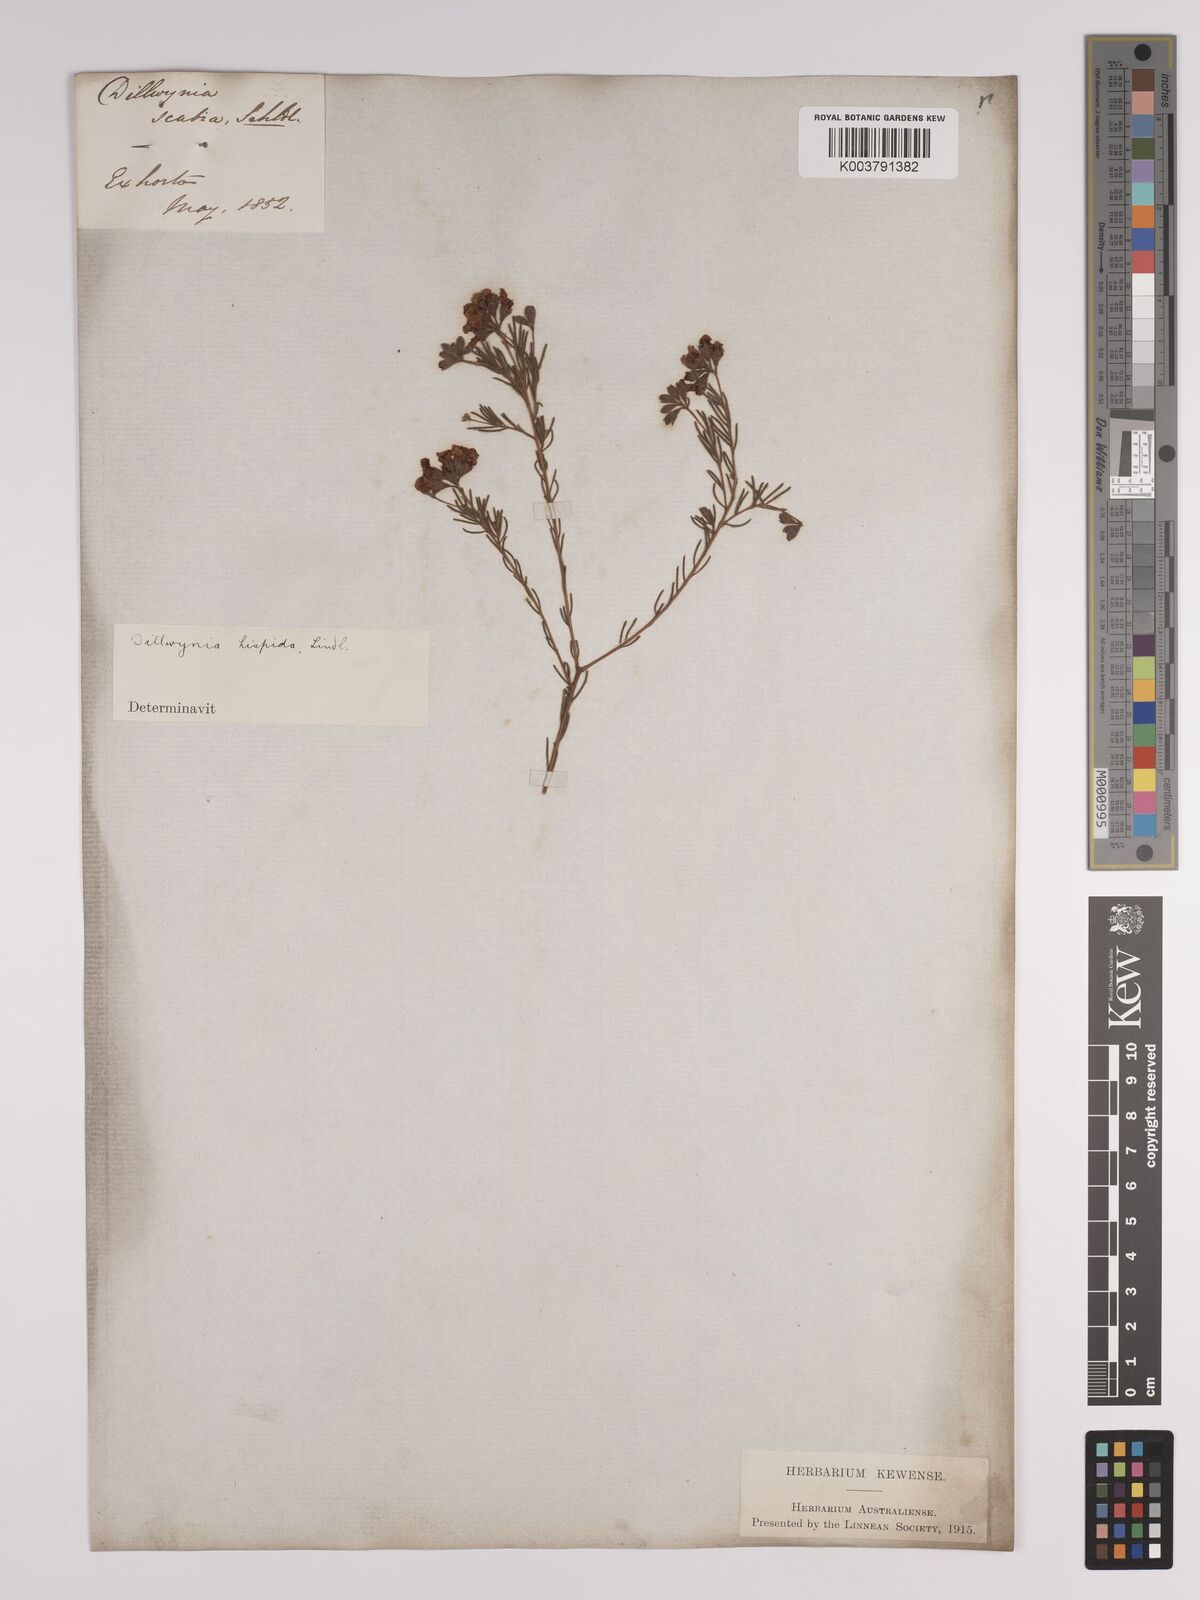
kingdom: Plantae
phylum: Tracheophyta
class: Magnoliopsida
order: Fabales
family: Fabaceae
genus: Dillwynia
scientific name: Dillwynia hispida
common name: Red parrot-pea
